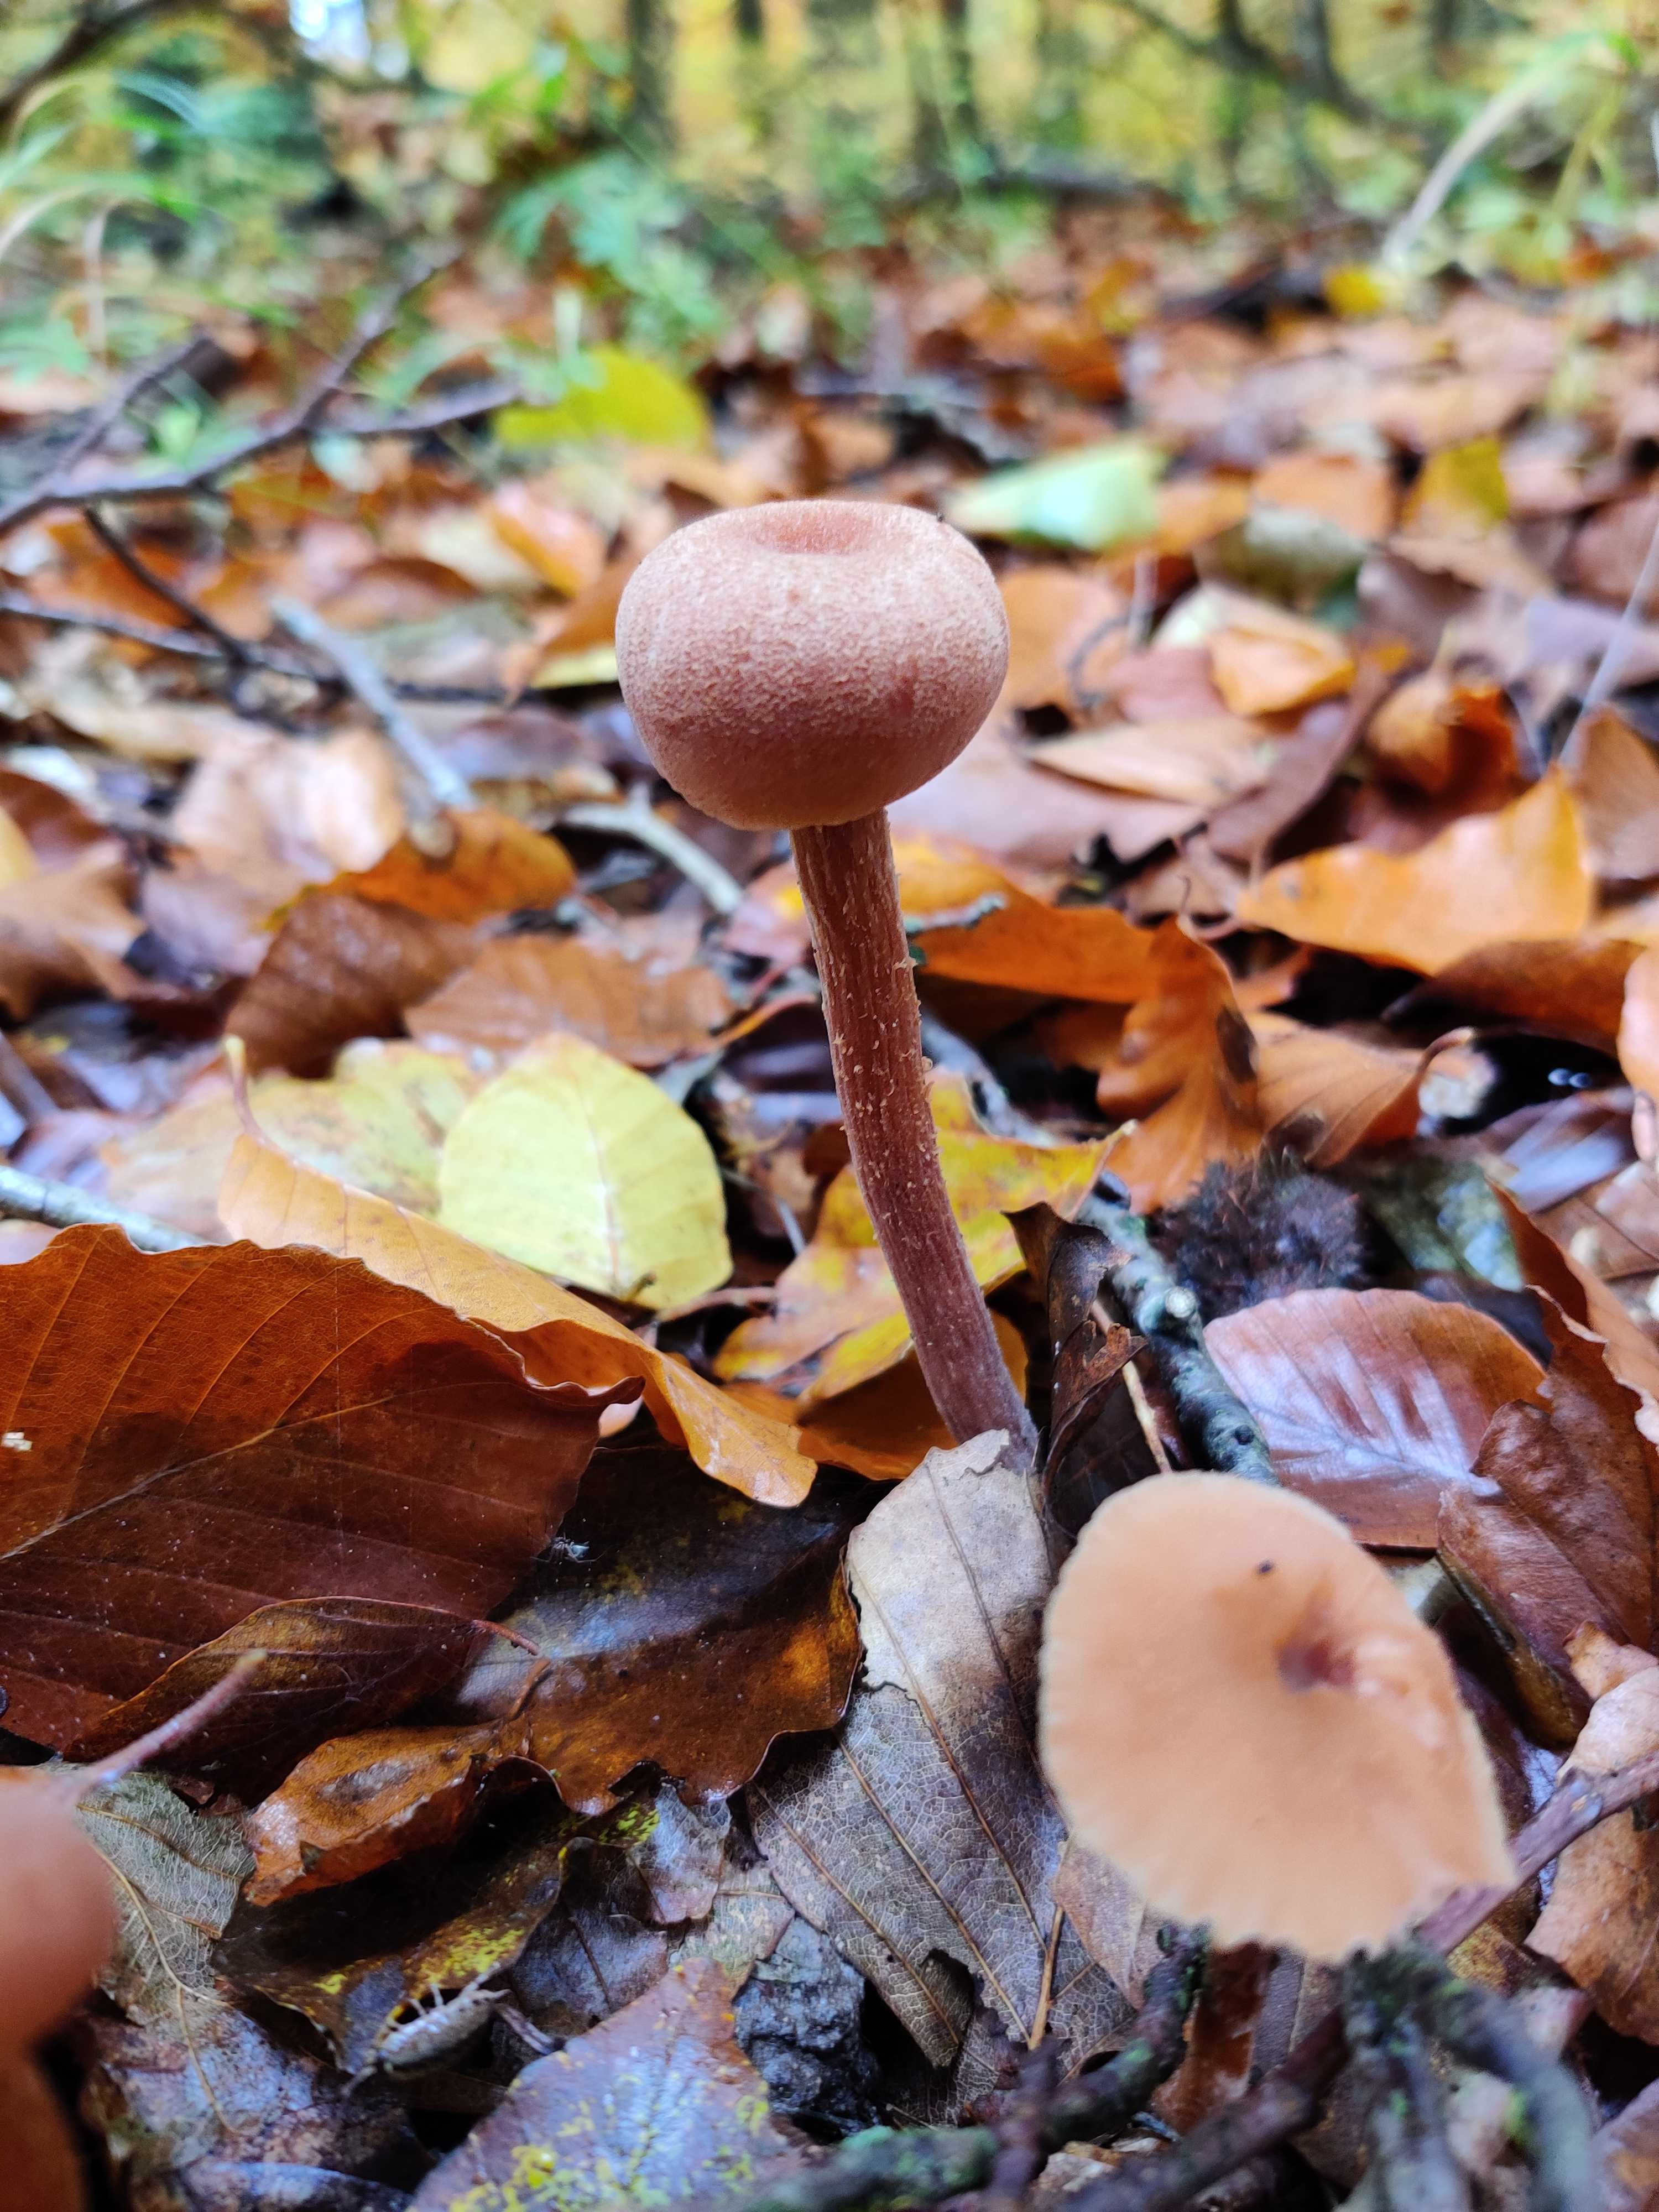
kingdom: Fungi
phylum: Basidiomycota
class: Agaricomycetes
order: Agaricales
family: Hydnangiaceae
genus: Laccaria
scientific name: Laccaria laccata
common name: rød ametysthat
